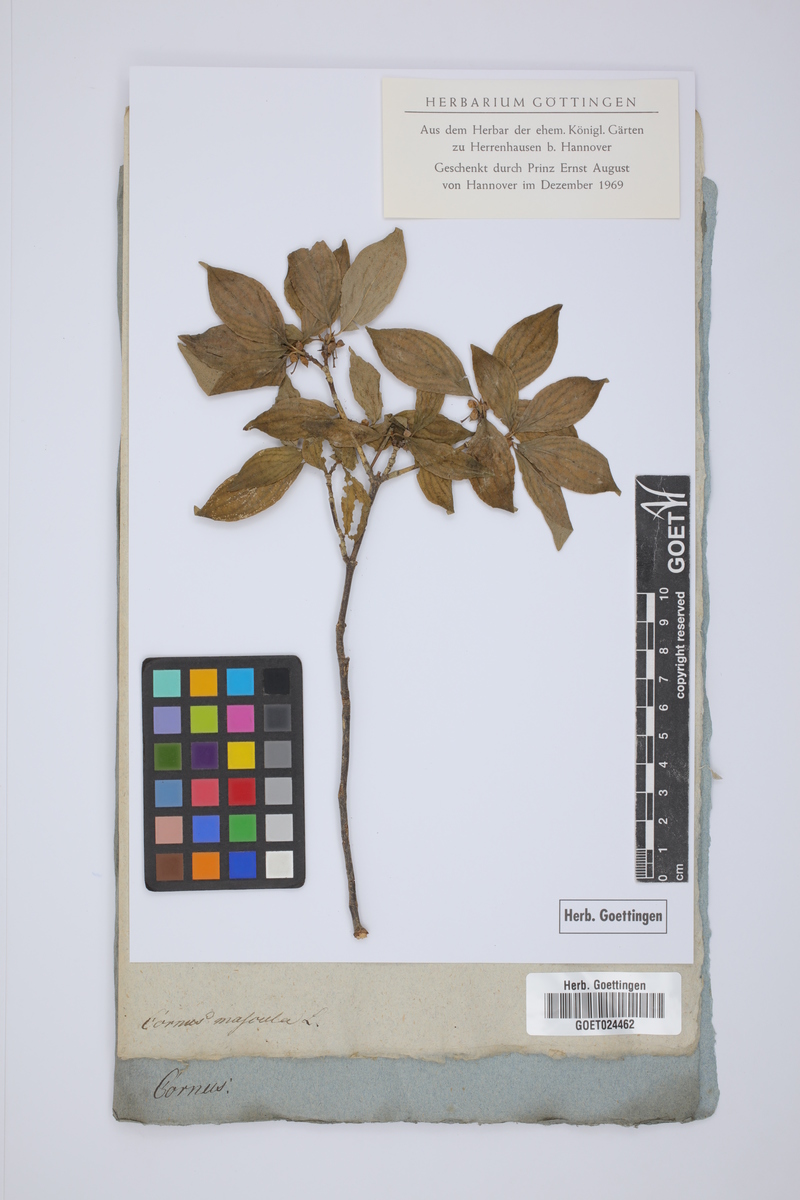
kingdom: Plantae
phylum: Tracheophyta
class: Magnoliopsida
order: Cornales
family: Cornaceae
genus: Cornus
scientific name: Cornus mas
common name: Cornelian-cherry
